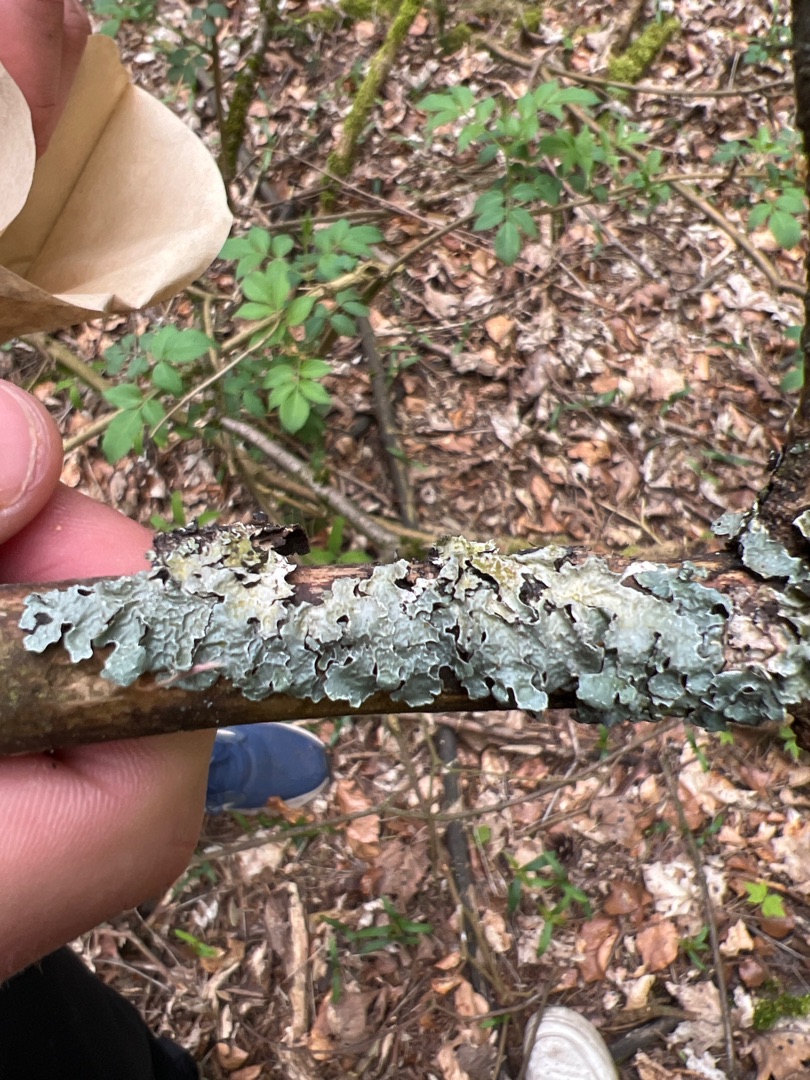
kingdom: Fungi
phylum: Ascomycota
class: Lecanoromycetes
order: Lecanorales
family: Parmeliaceae
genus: Parmelia
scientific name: Parmelia sulcata
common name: Rynket skållav
